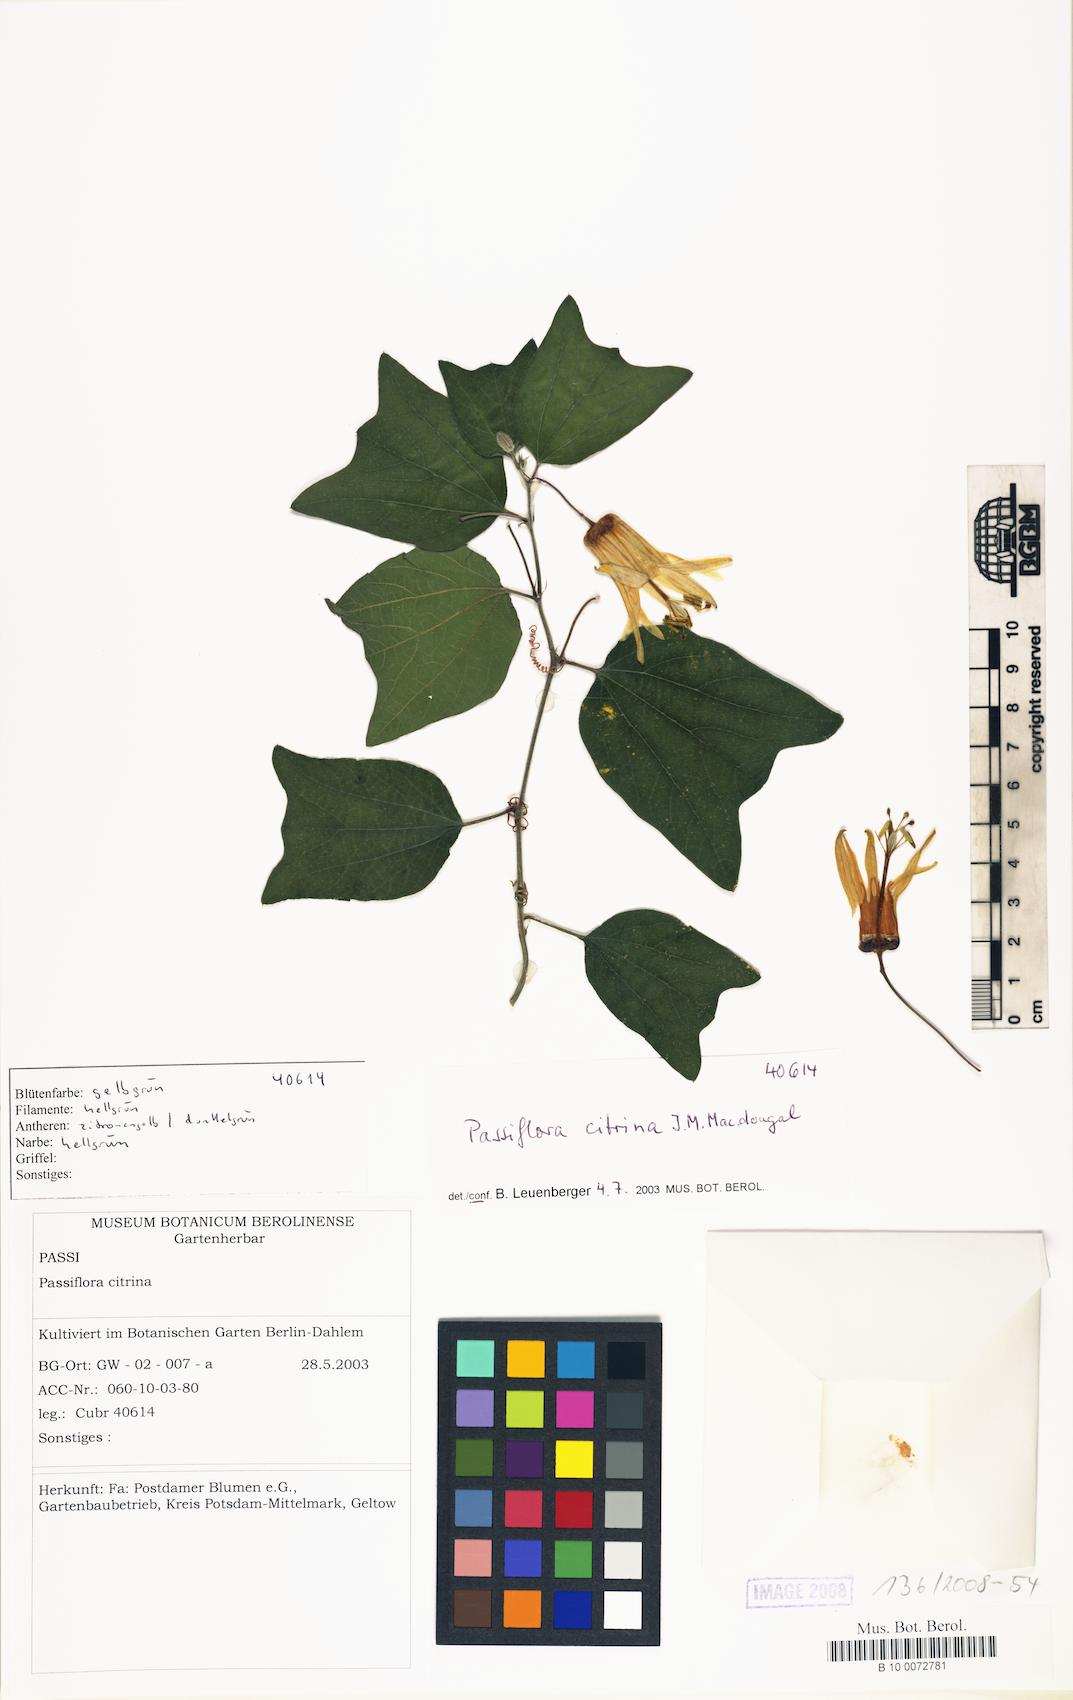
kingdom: Plantae
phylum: Tracheophyta
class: Magnoliopsida
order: Malpighiales
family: Passifloraceae
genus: Passiflora
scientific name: Passiflora citrina
